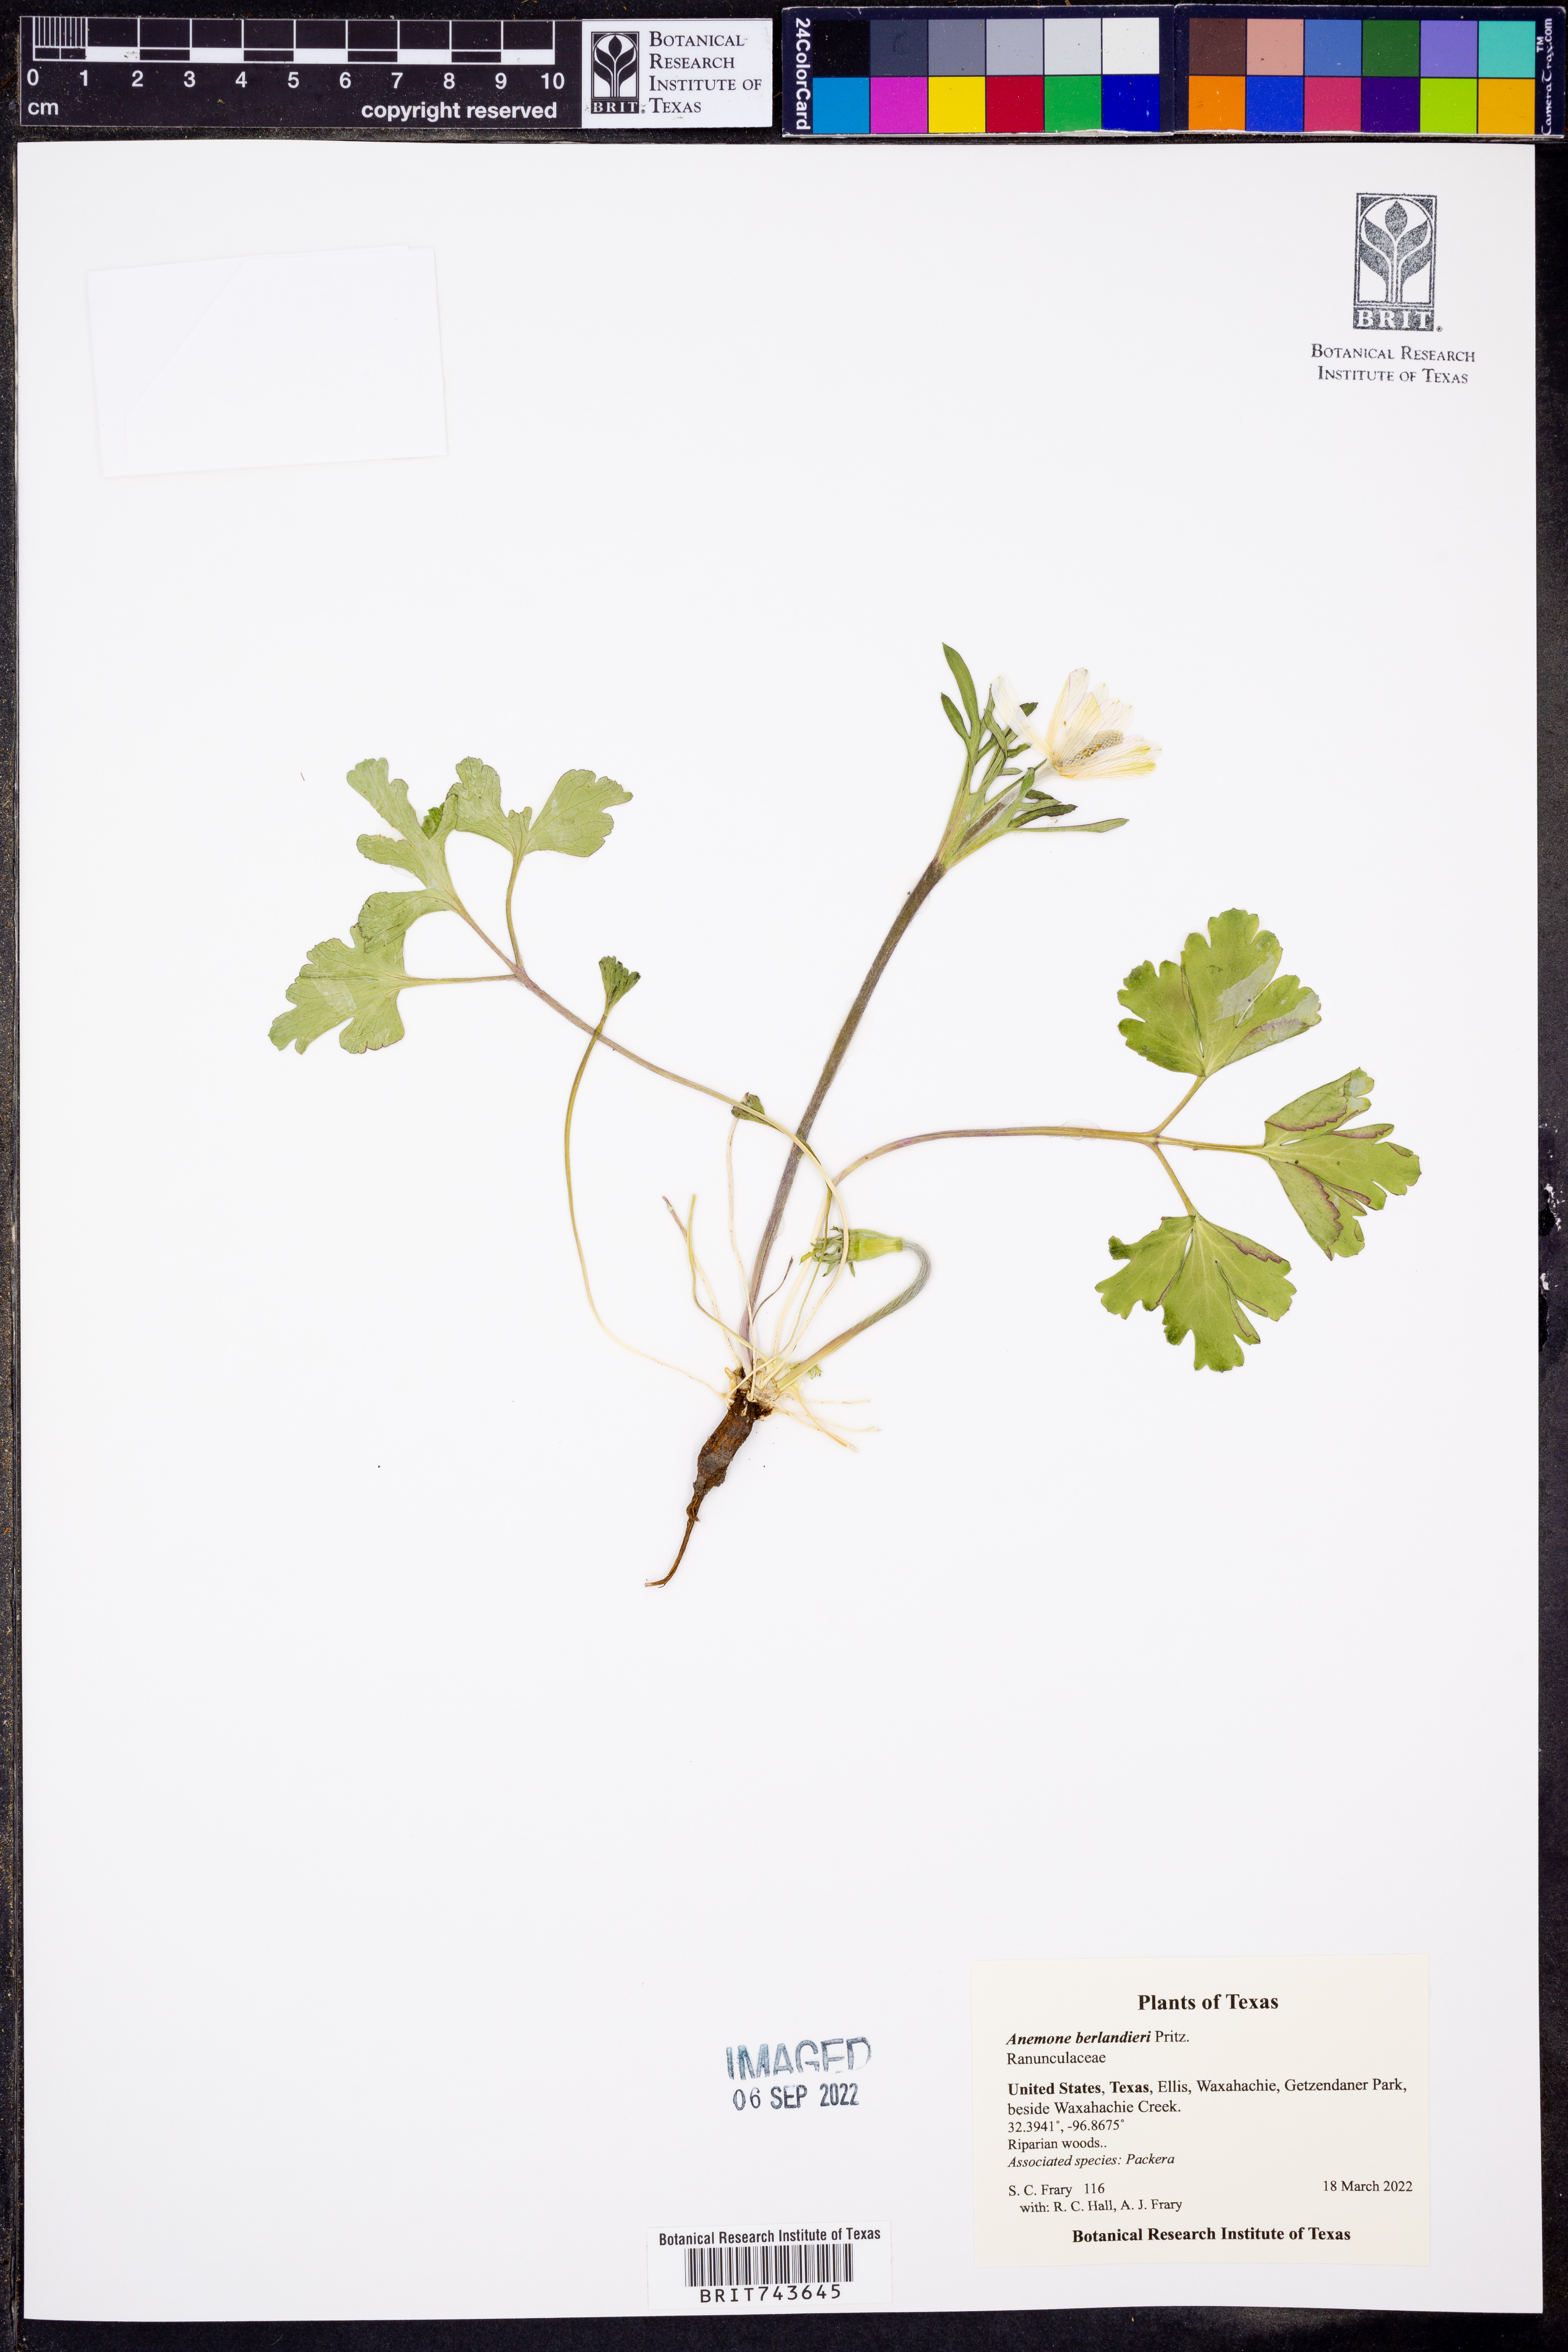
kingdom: Plantae
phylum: Tracheophyta
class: Magnoliopsida
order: Ranunculales
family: Ranunculaceae
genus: Anemone
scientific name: Anemone berlandieri
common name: Ten-petal anemone
